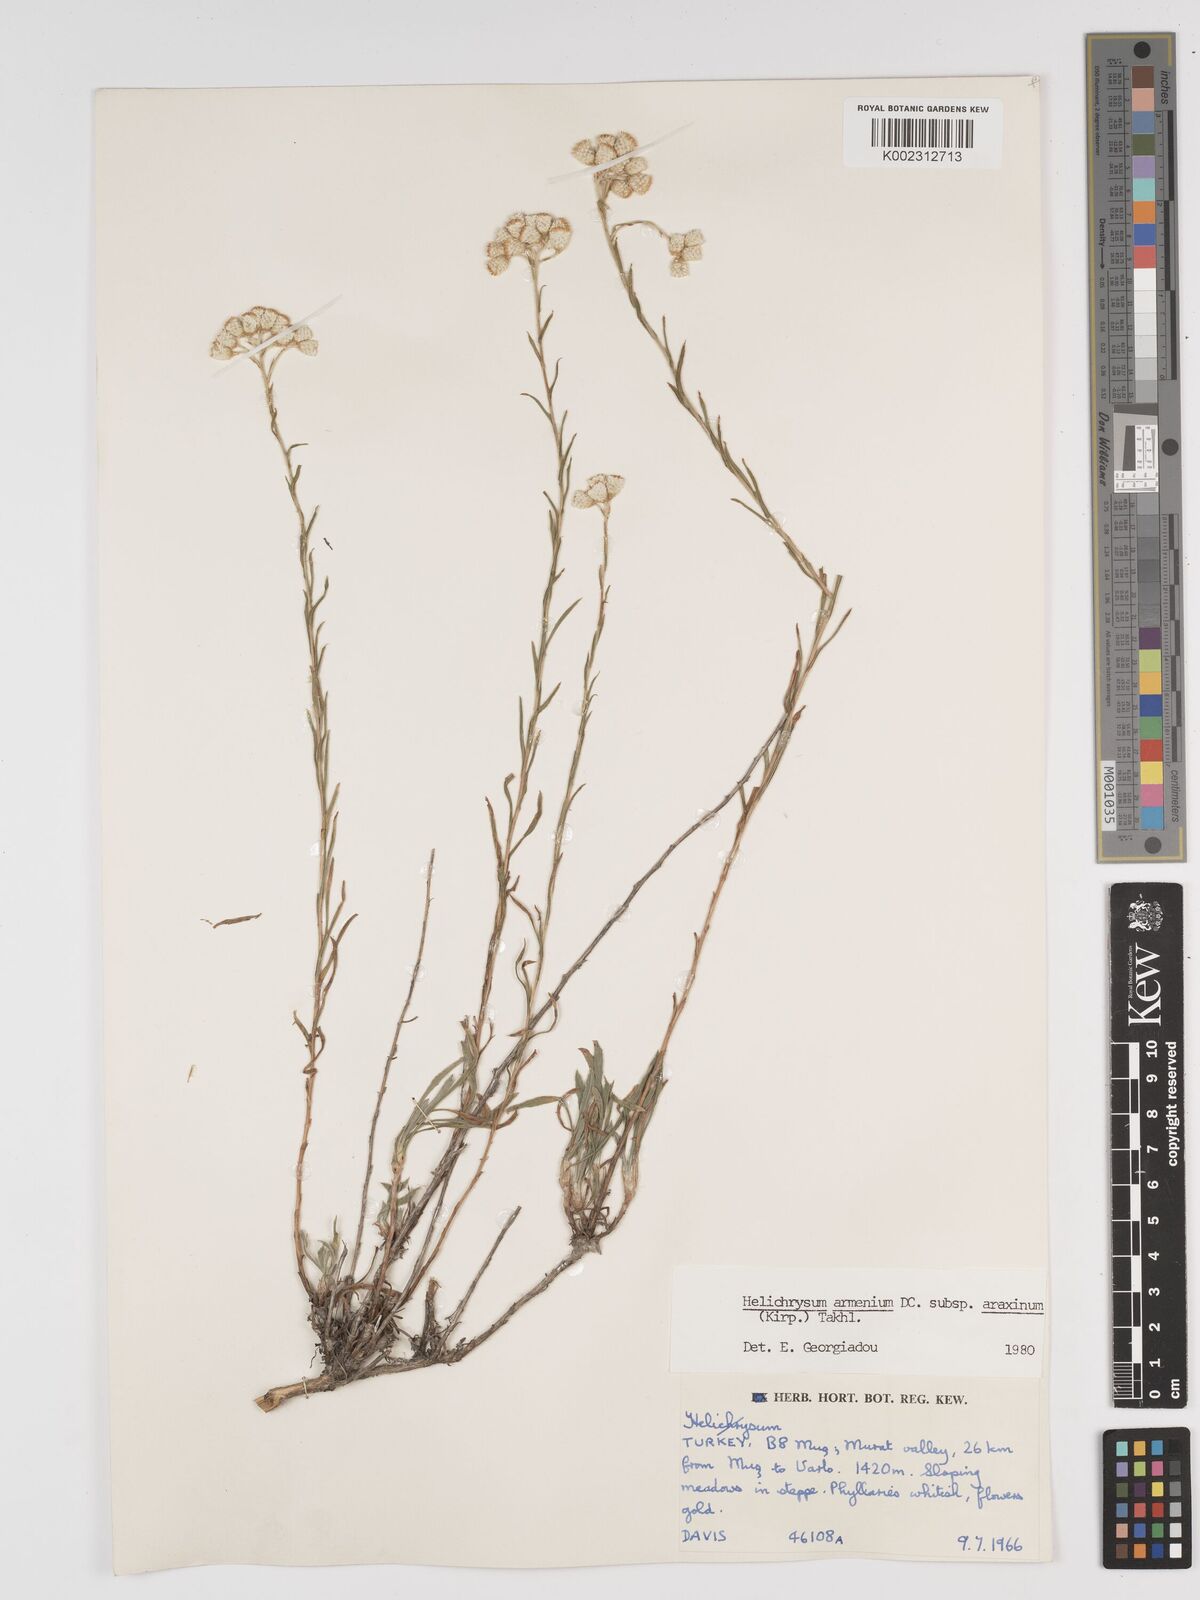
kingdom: Plantae
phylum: Tracheophyta
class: Magnoliopsida
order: Asterales
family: Asteraceae
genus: Helichrysum
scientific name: Helichrysum araxinum
